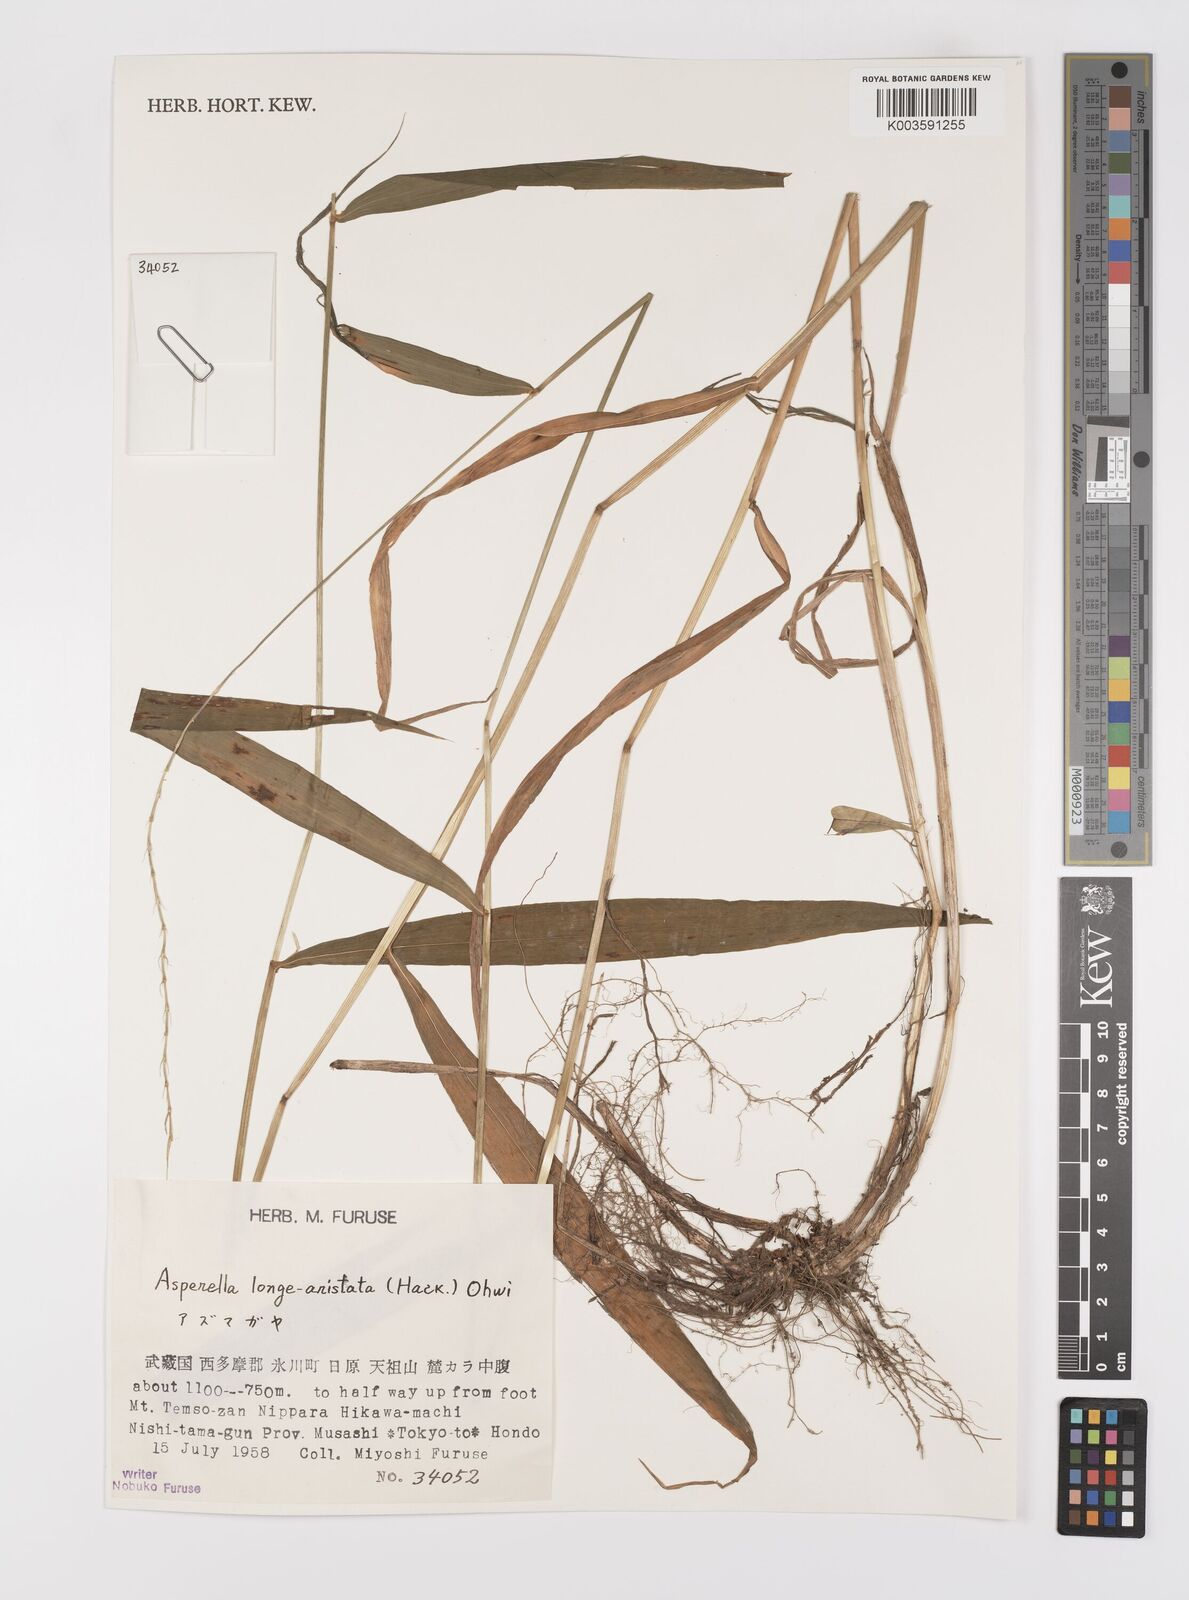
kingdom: Plantae
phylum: Tracheophyta
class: Liliopsida
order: Poales
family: Poaceae
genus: Leymus
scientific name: Leymus duthiei
